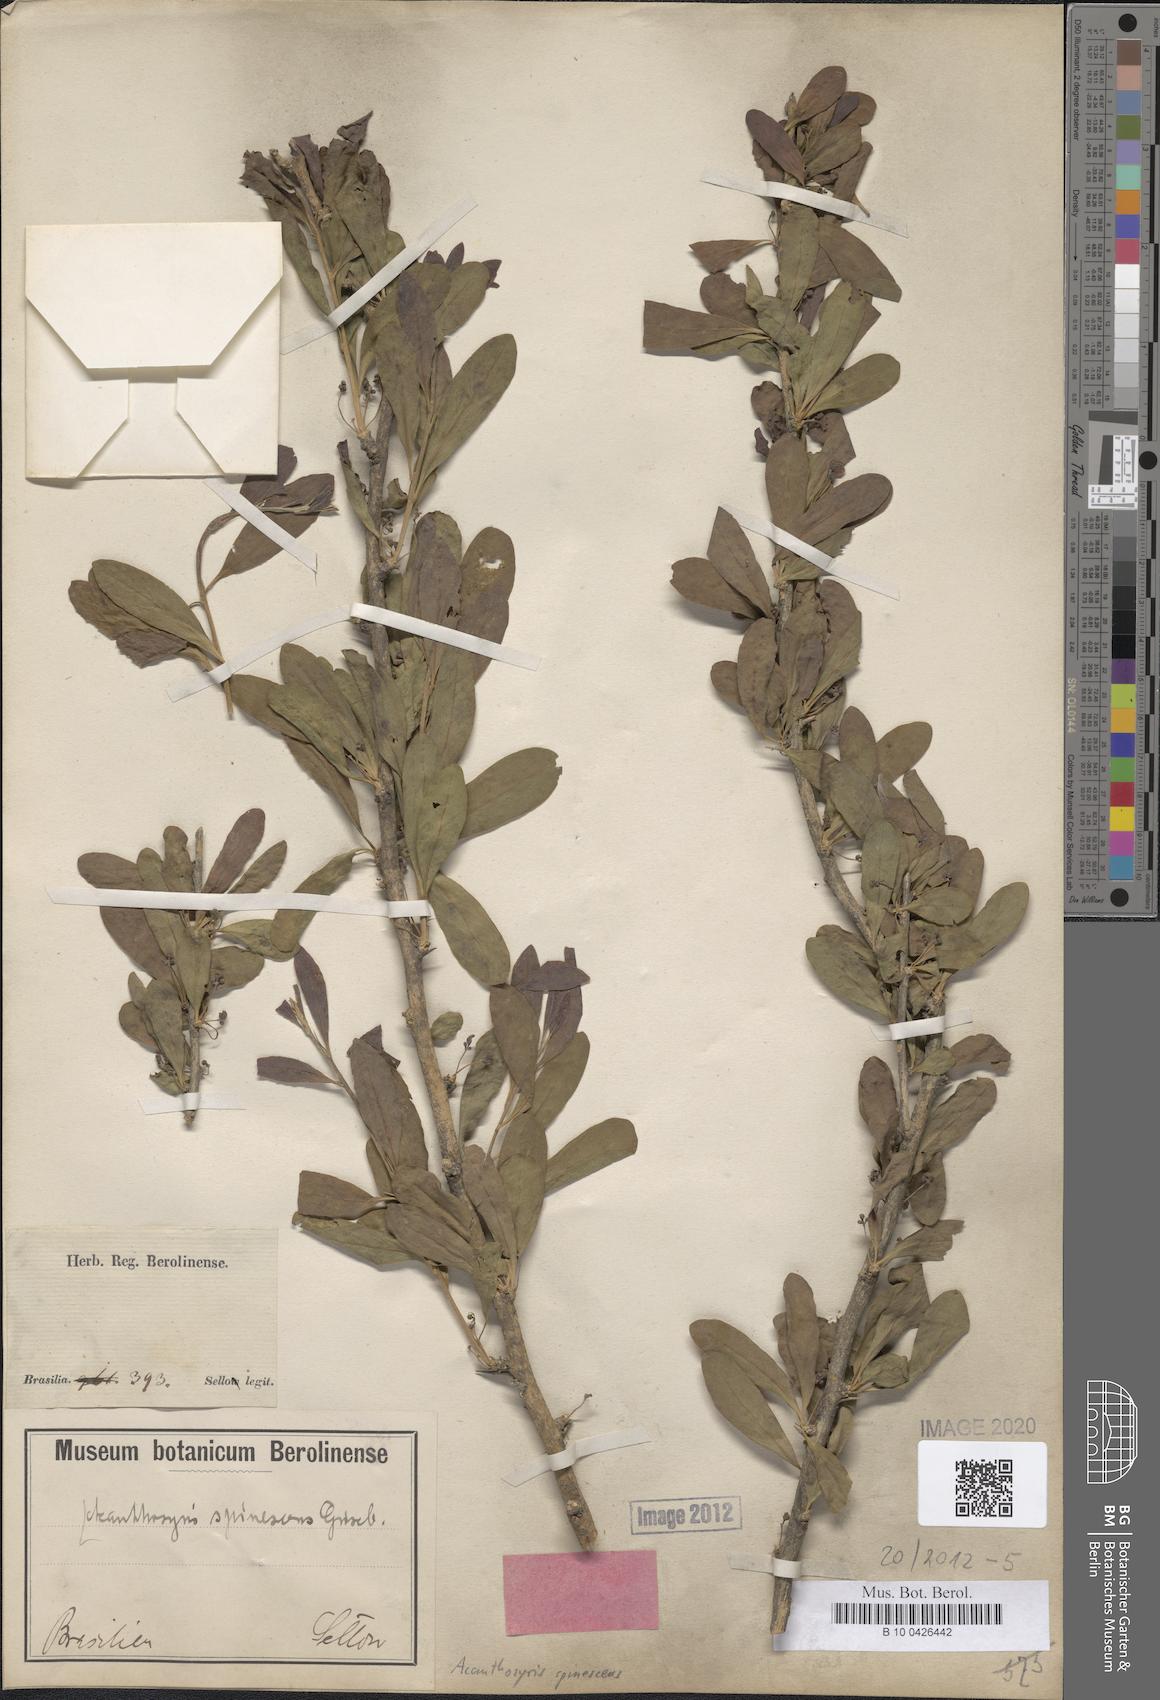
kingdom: Plantae
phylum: Tracheophyta
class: Magnoliopsida
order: Santalales
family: Cervantesiaceae
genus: Acanthosyris
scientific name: Acanthosyris spinescens
